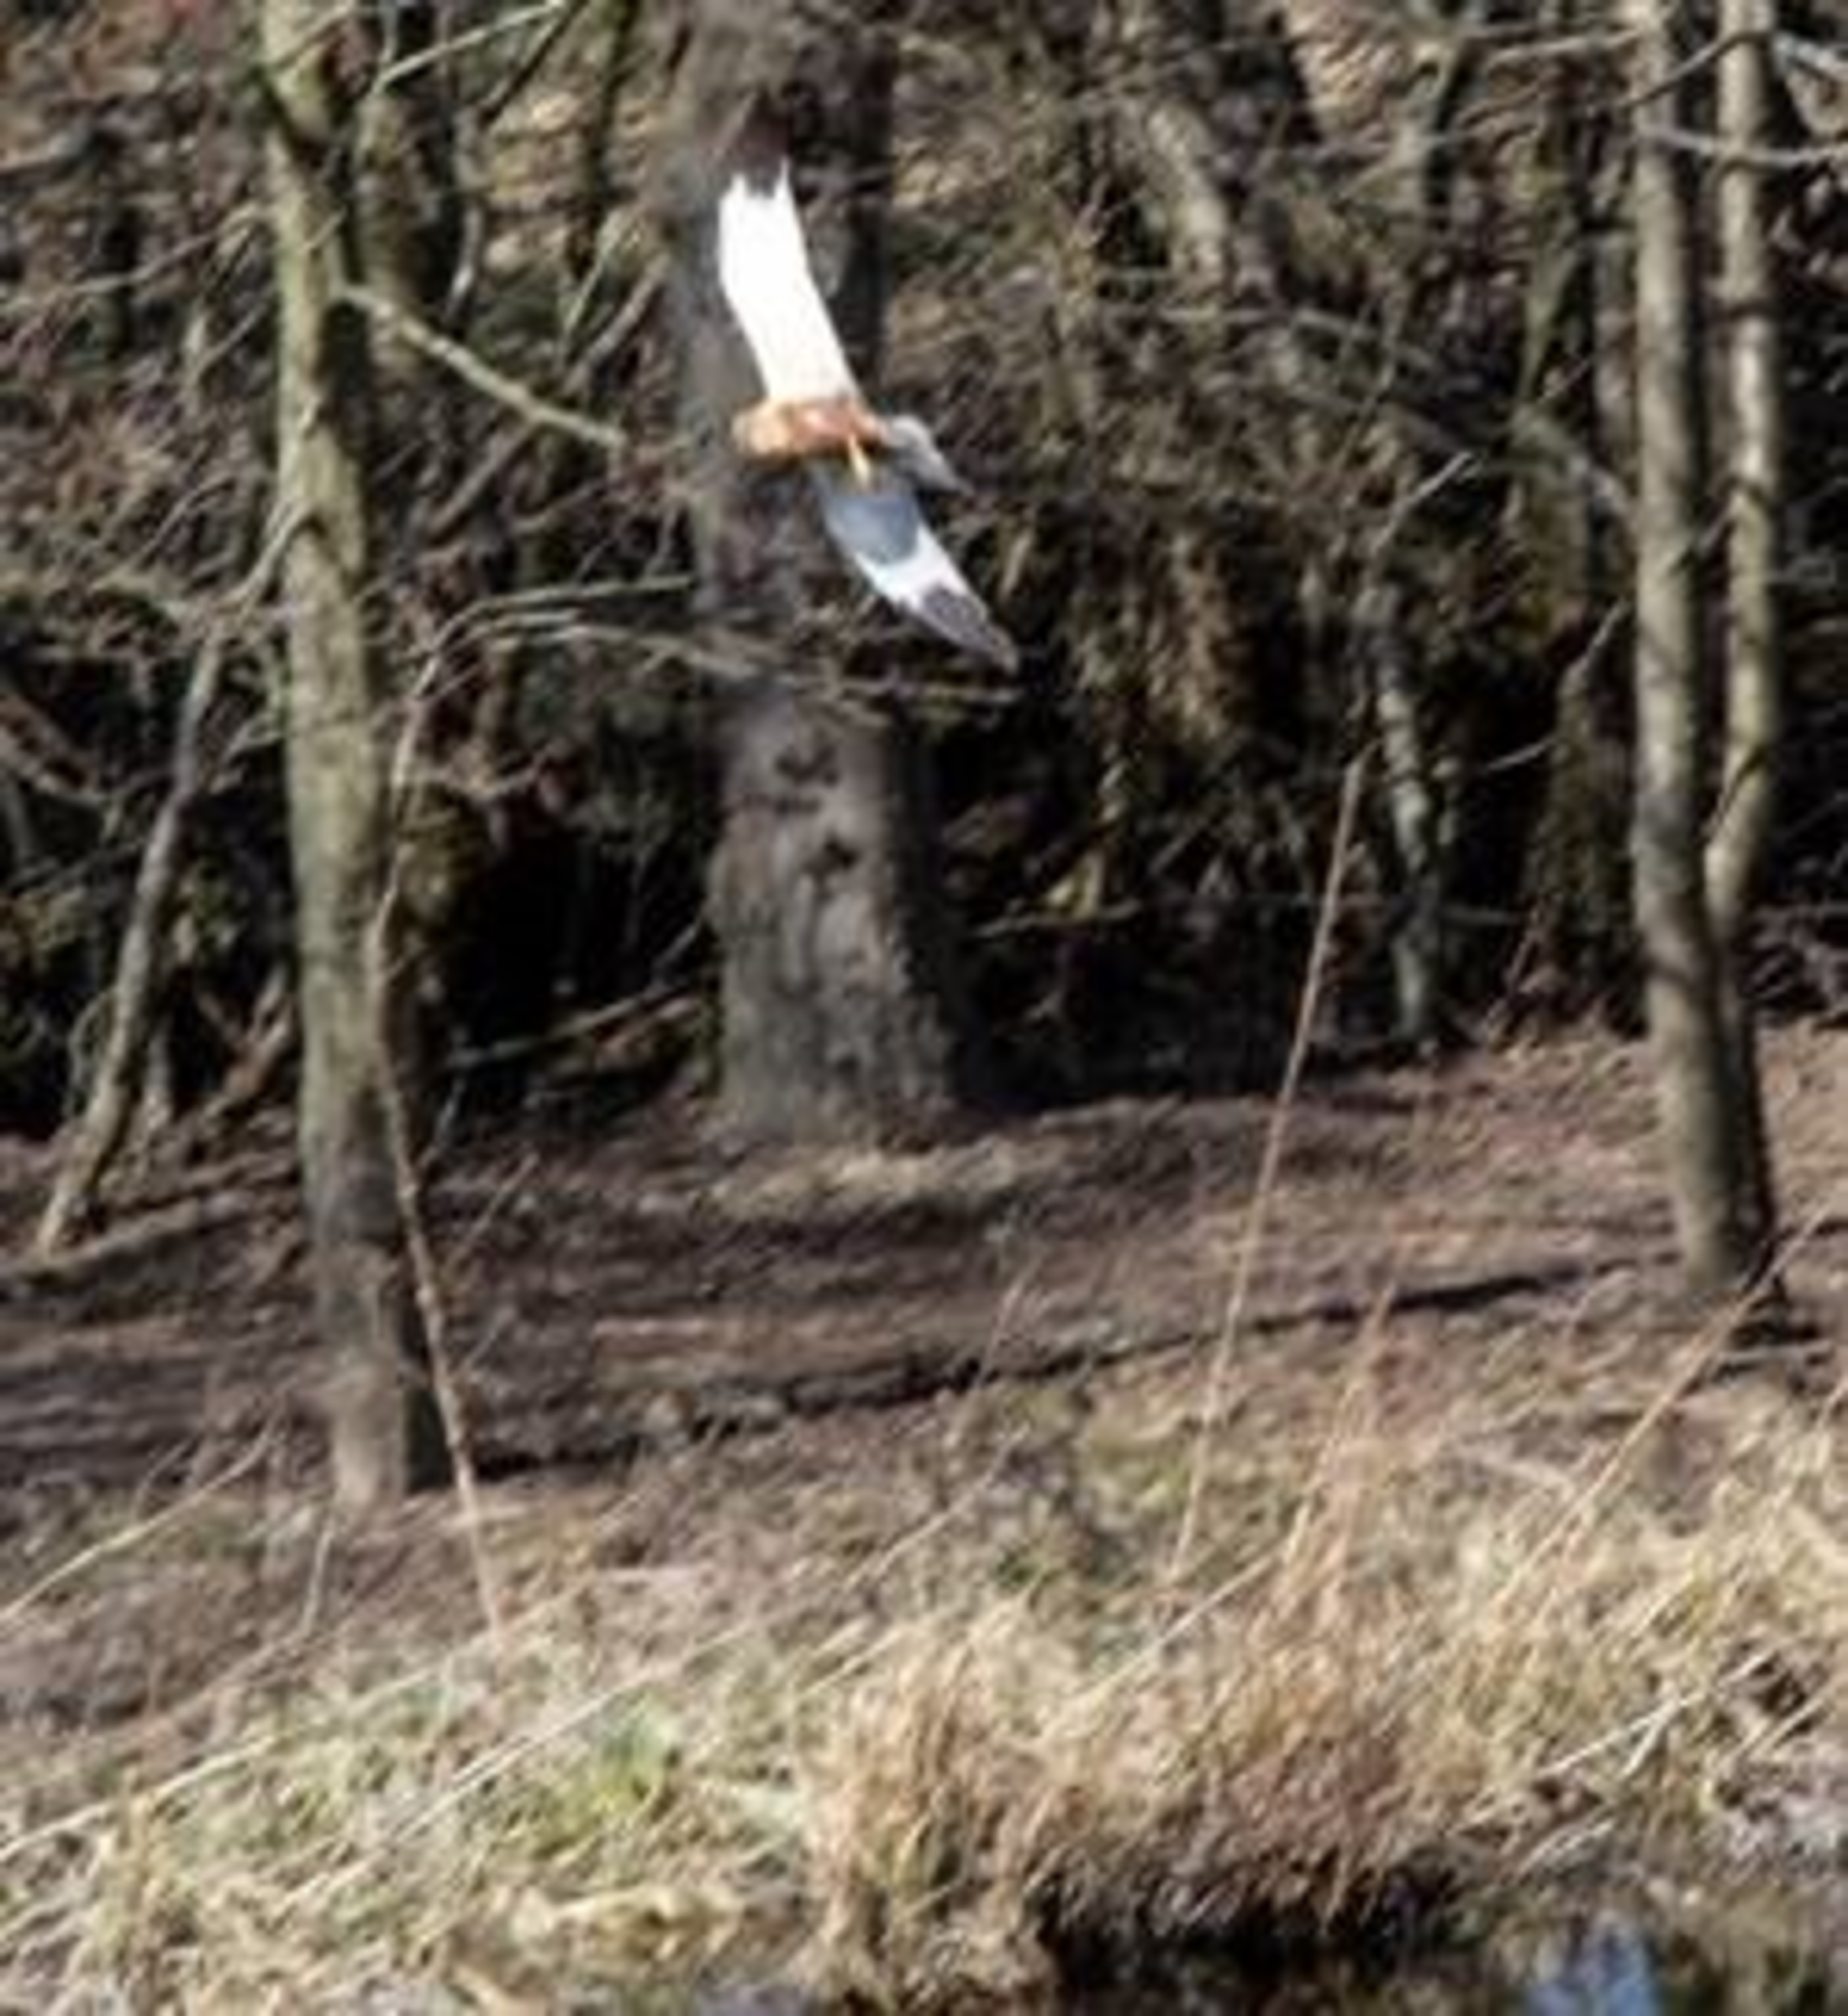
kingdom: Animalia
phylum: Chordata
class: Aves
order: Accipitriformes
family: Accipitridae
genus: Circus
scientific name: Circus aeruginosus
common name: Rørhøg
